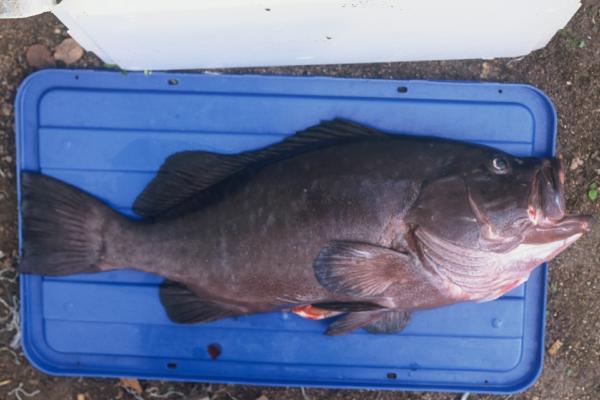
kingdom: Animalia
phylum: Chordata
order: Perciformes
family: Serranidae
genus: Epinephelus
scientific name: Epinephelus multinotatus
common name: Rankin's cod
